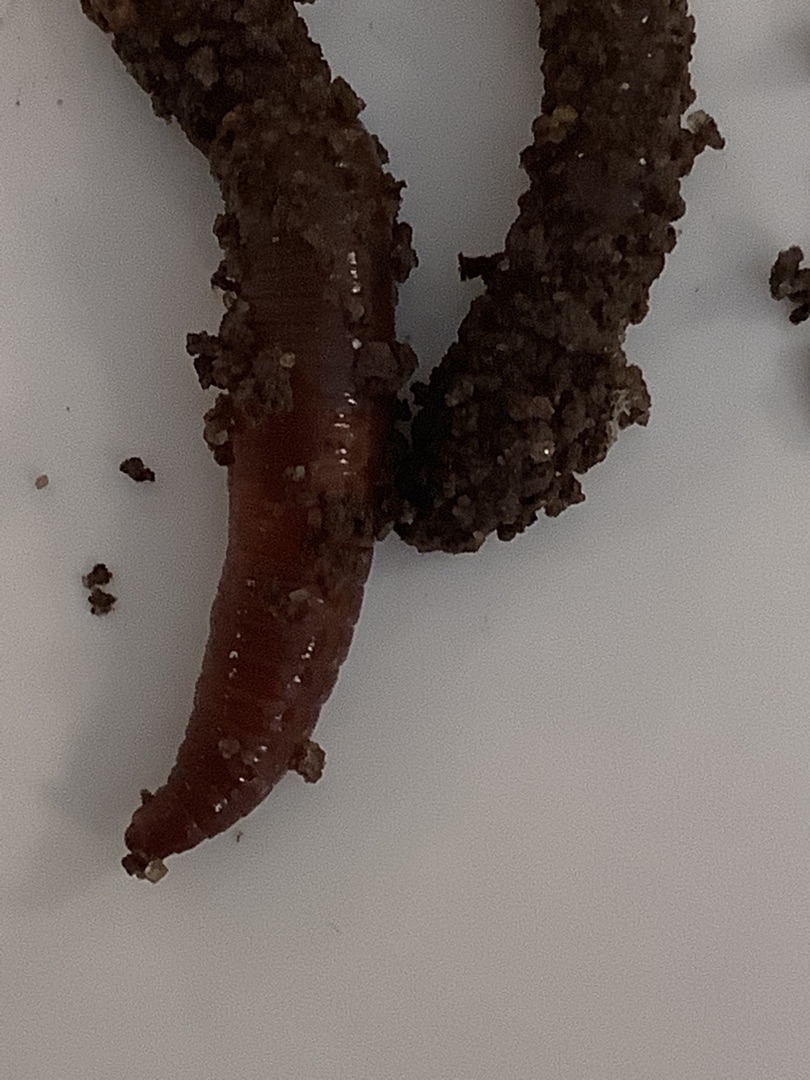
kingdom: Animalia
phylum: Annelida
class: Clitellata
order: Crassiclitellata
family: Lumbricidae
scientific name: Lumbricidae
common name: Regnorme
